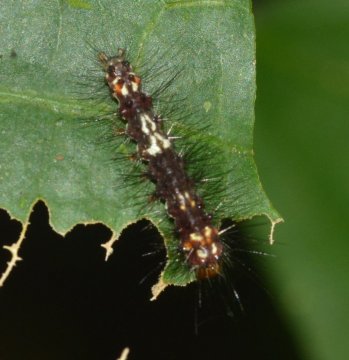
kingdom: Animalia
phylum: Arthropoda
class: Insecta
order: Lepidoptera
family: Nymphalidae
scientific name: Nymphalidae
